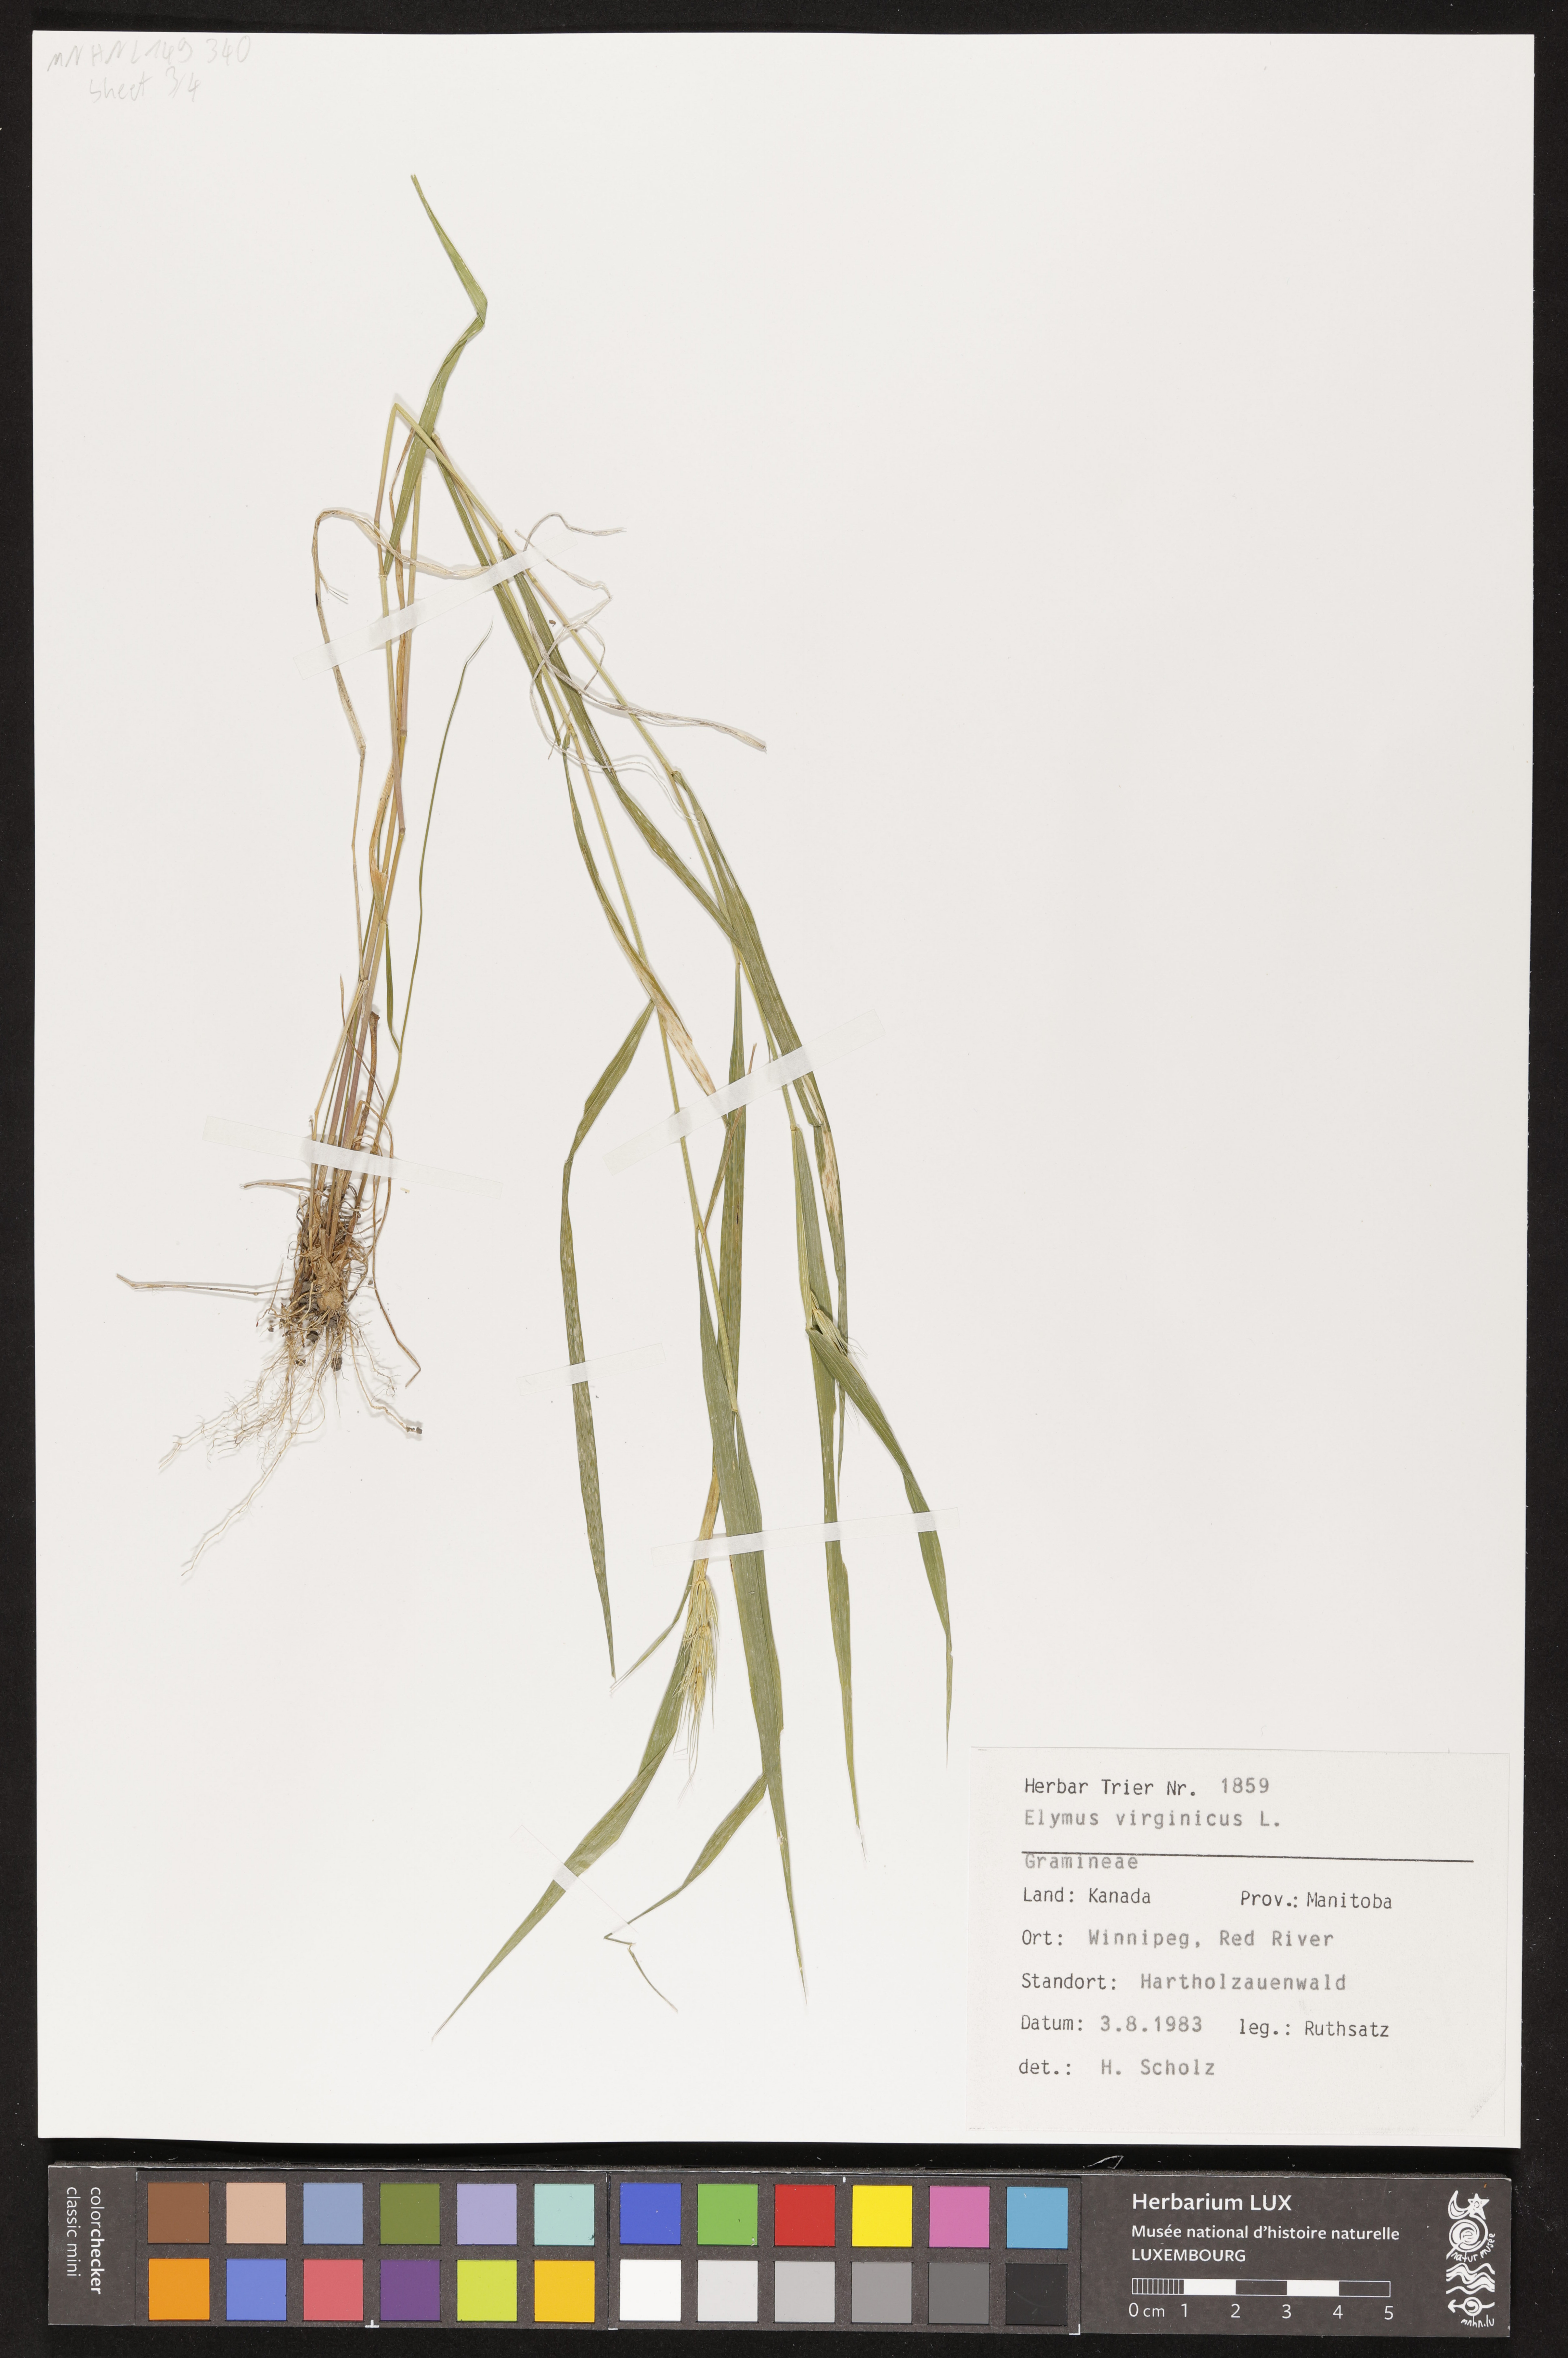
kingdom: Plantae
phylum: Tracheophyta
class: Liliopsida
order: Poales
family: Poaceae
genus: Elymus
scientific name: Elymus virginicus
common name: Common eastern wildrye
